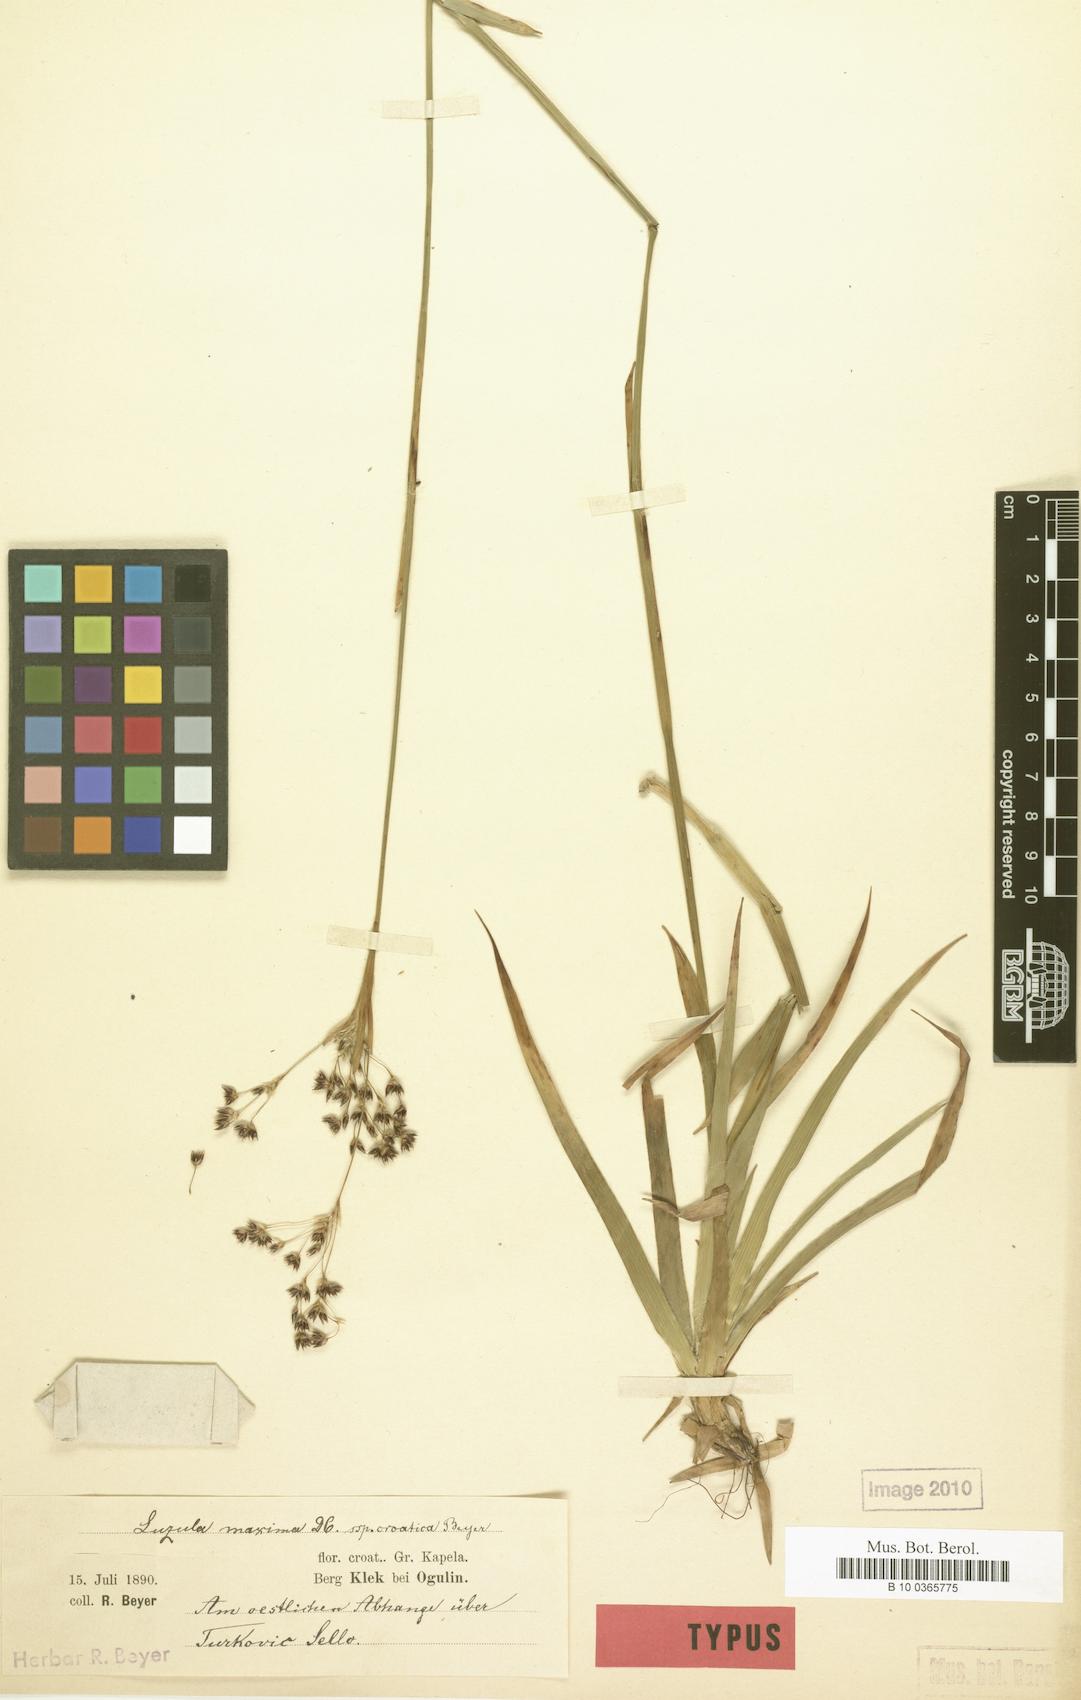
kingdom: Plantae
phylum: Tracheophyta
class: Liliopsida
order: Poales
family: Juncaceae
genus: Luzula
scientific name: Luzula sylvatica
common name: Great wood-rush
